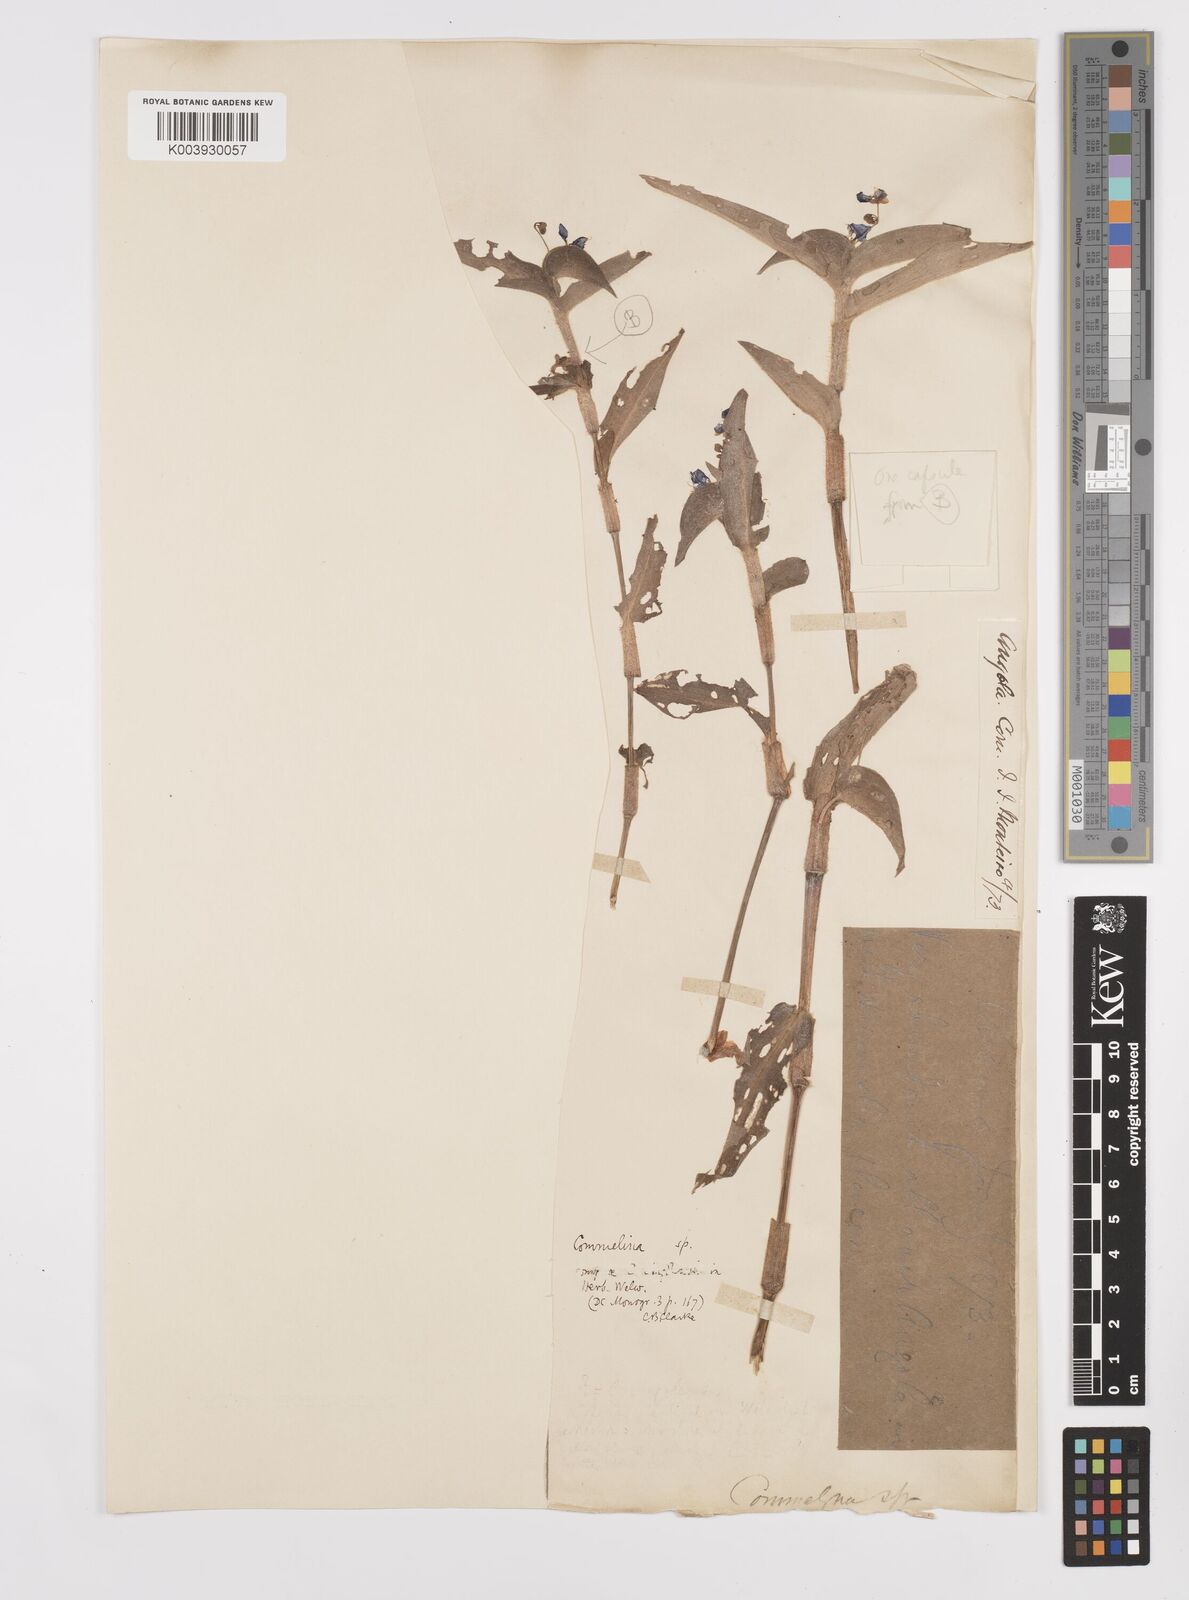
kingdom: Plantae
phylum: Tracheophyta
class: Liliopsida
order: Commelinales
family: Commelinaceae
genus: Commelina
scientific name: Commelina diffusa
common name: Climbing dayflower
